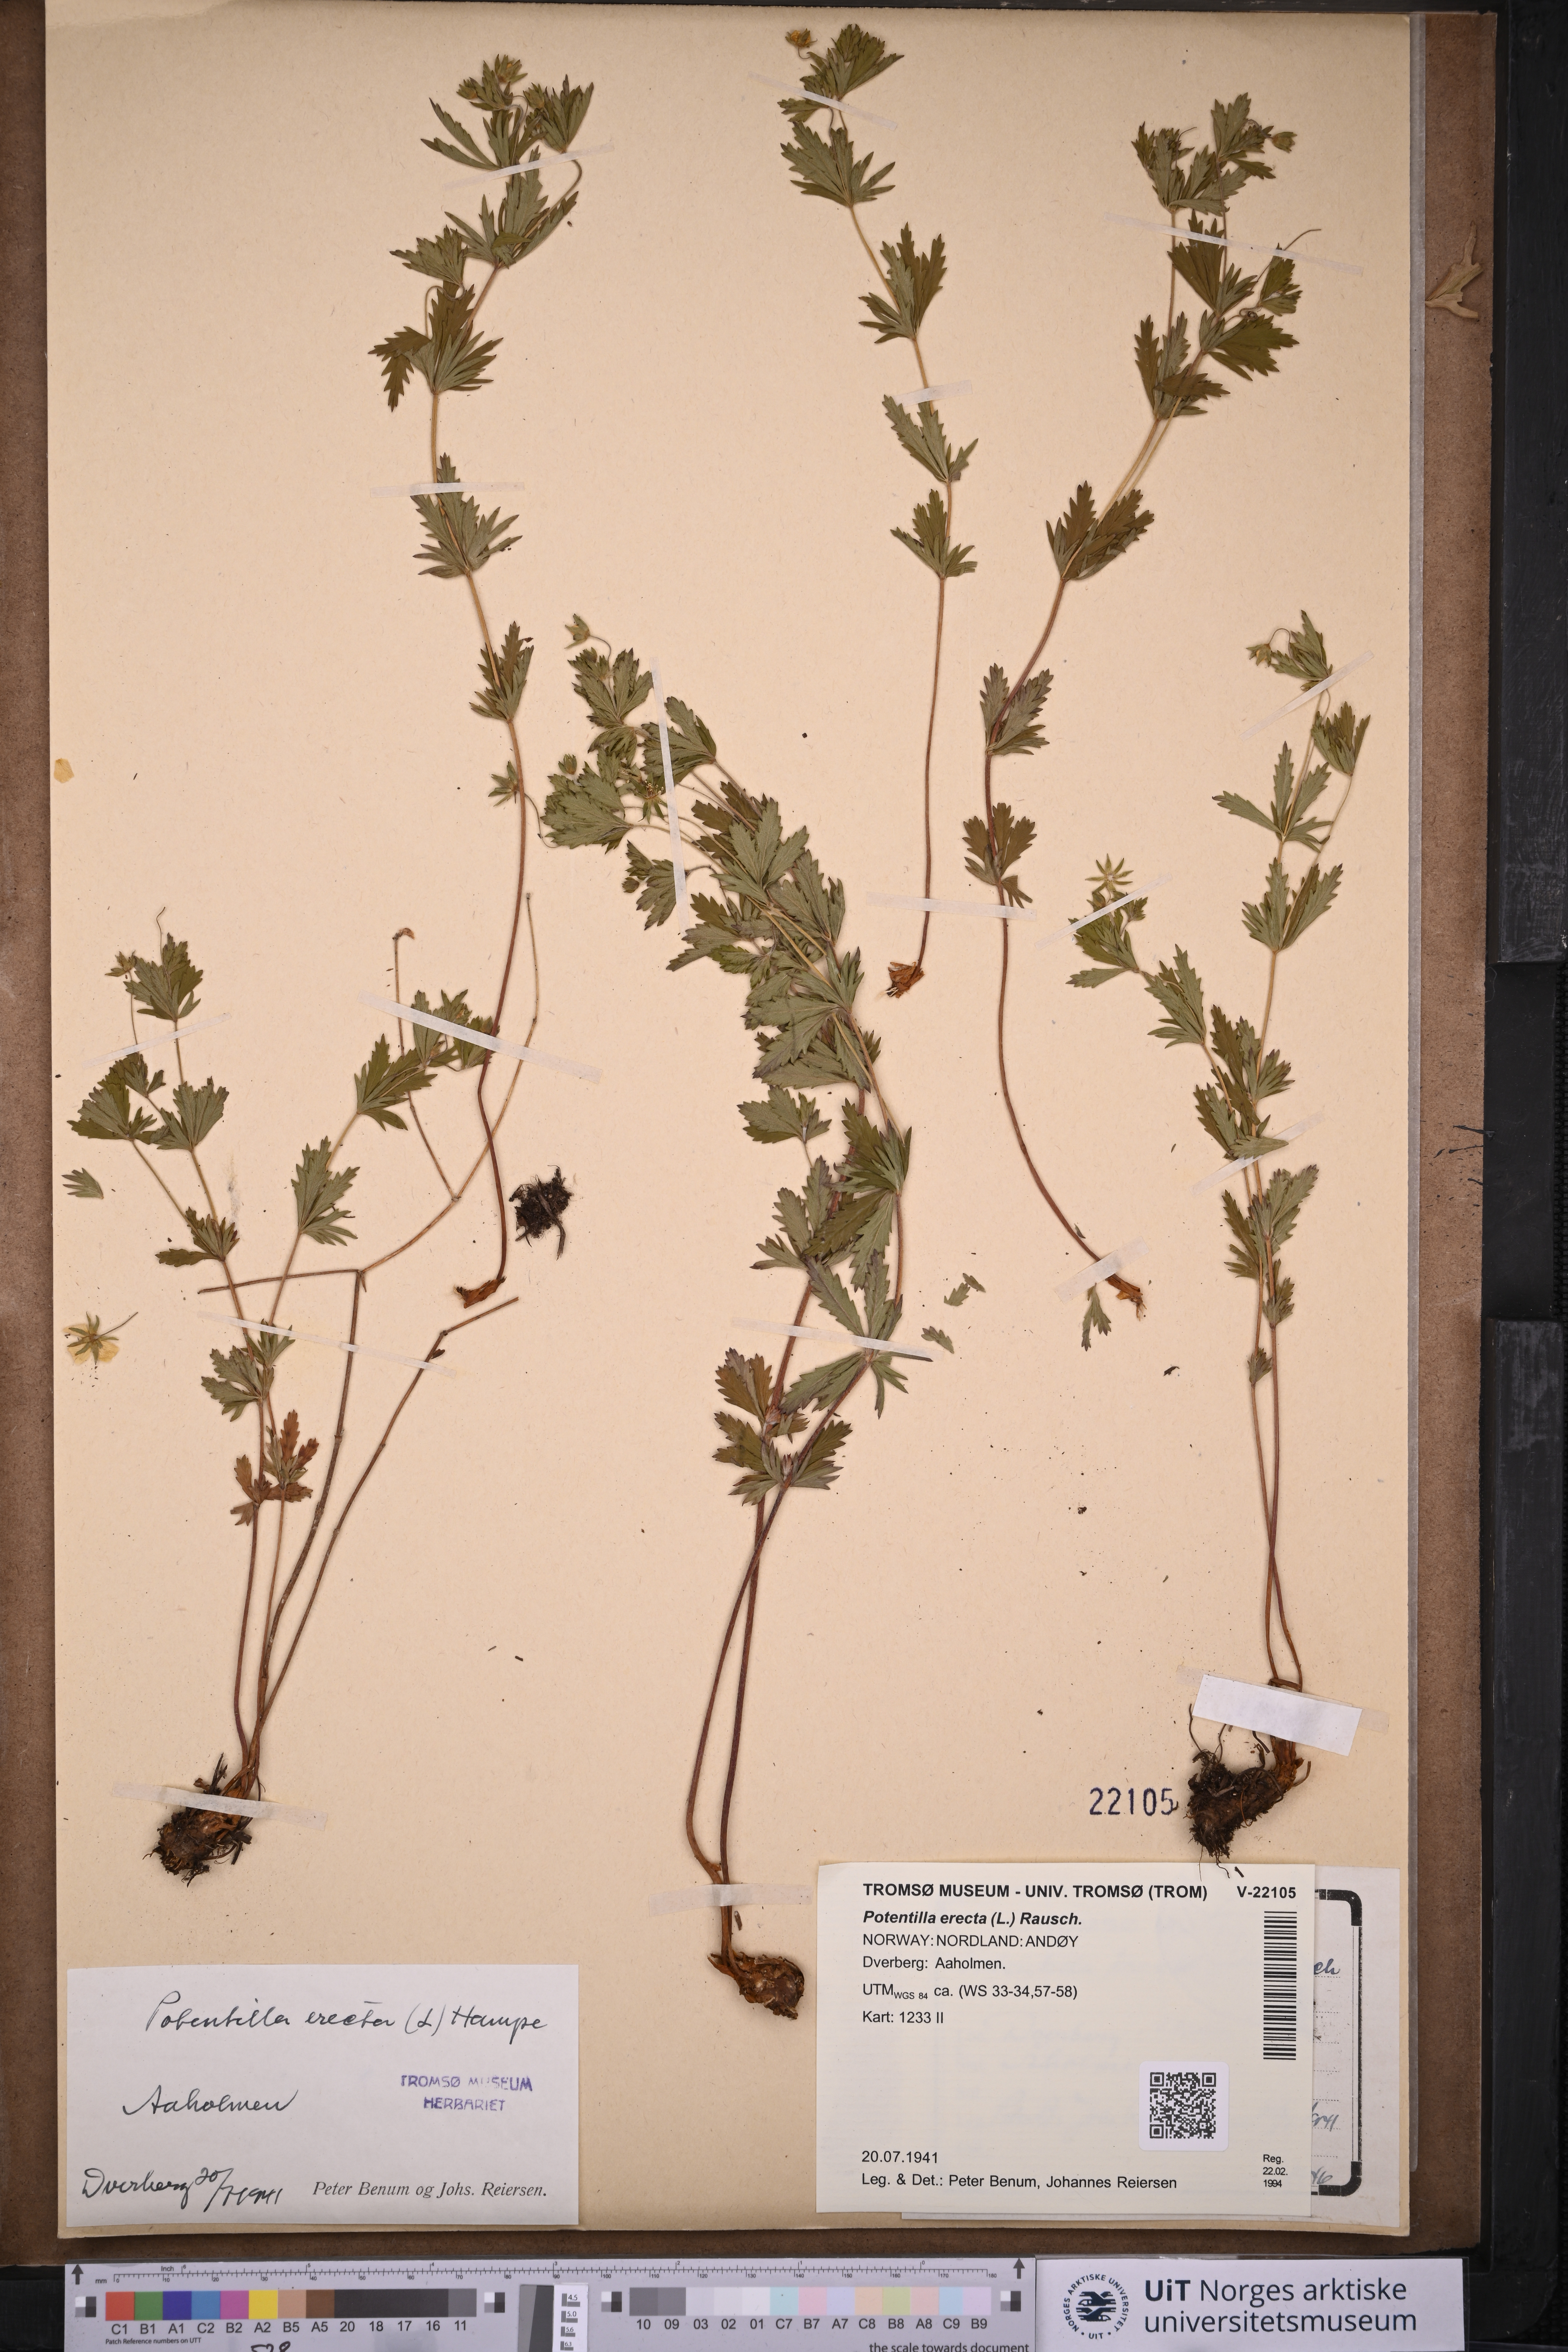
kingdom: Plantae
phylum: Tracheophyta
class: Magnoliopsida
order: Rosales
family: Rosaceae
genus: Potentilla
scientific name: Potentilla erecta
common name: Tormentil
